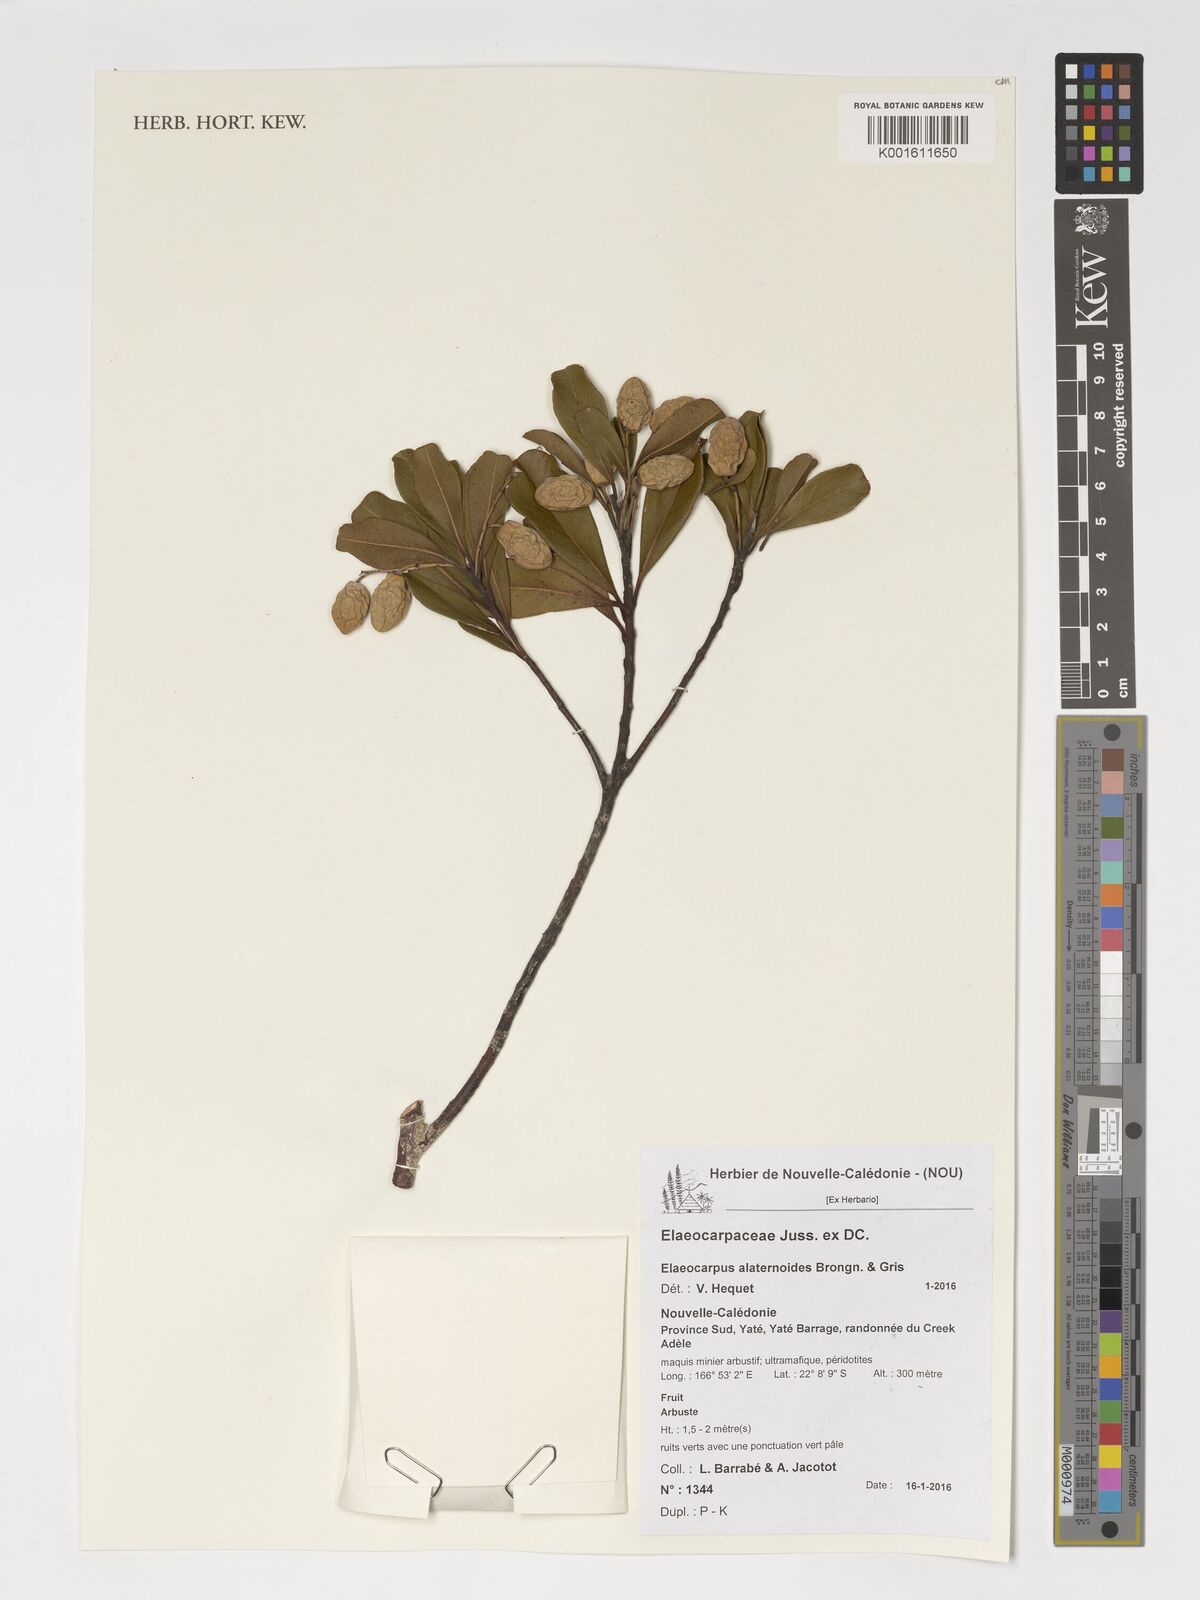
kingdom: Plantae
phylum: Tracheophyta
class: Magnoliopsida
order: Oxalidales
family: Elaeocarpaceae
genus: Elaeocarpus
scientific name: Elaeocarpus alaternoides
